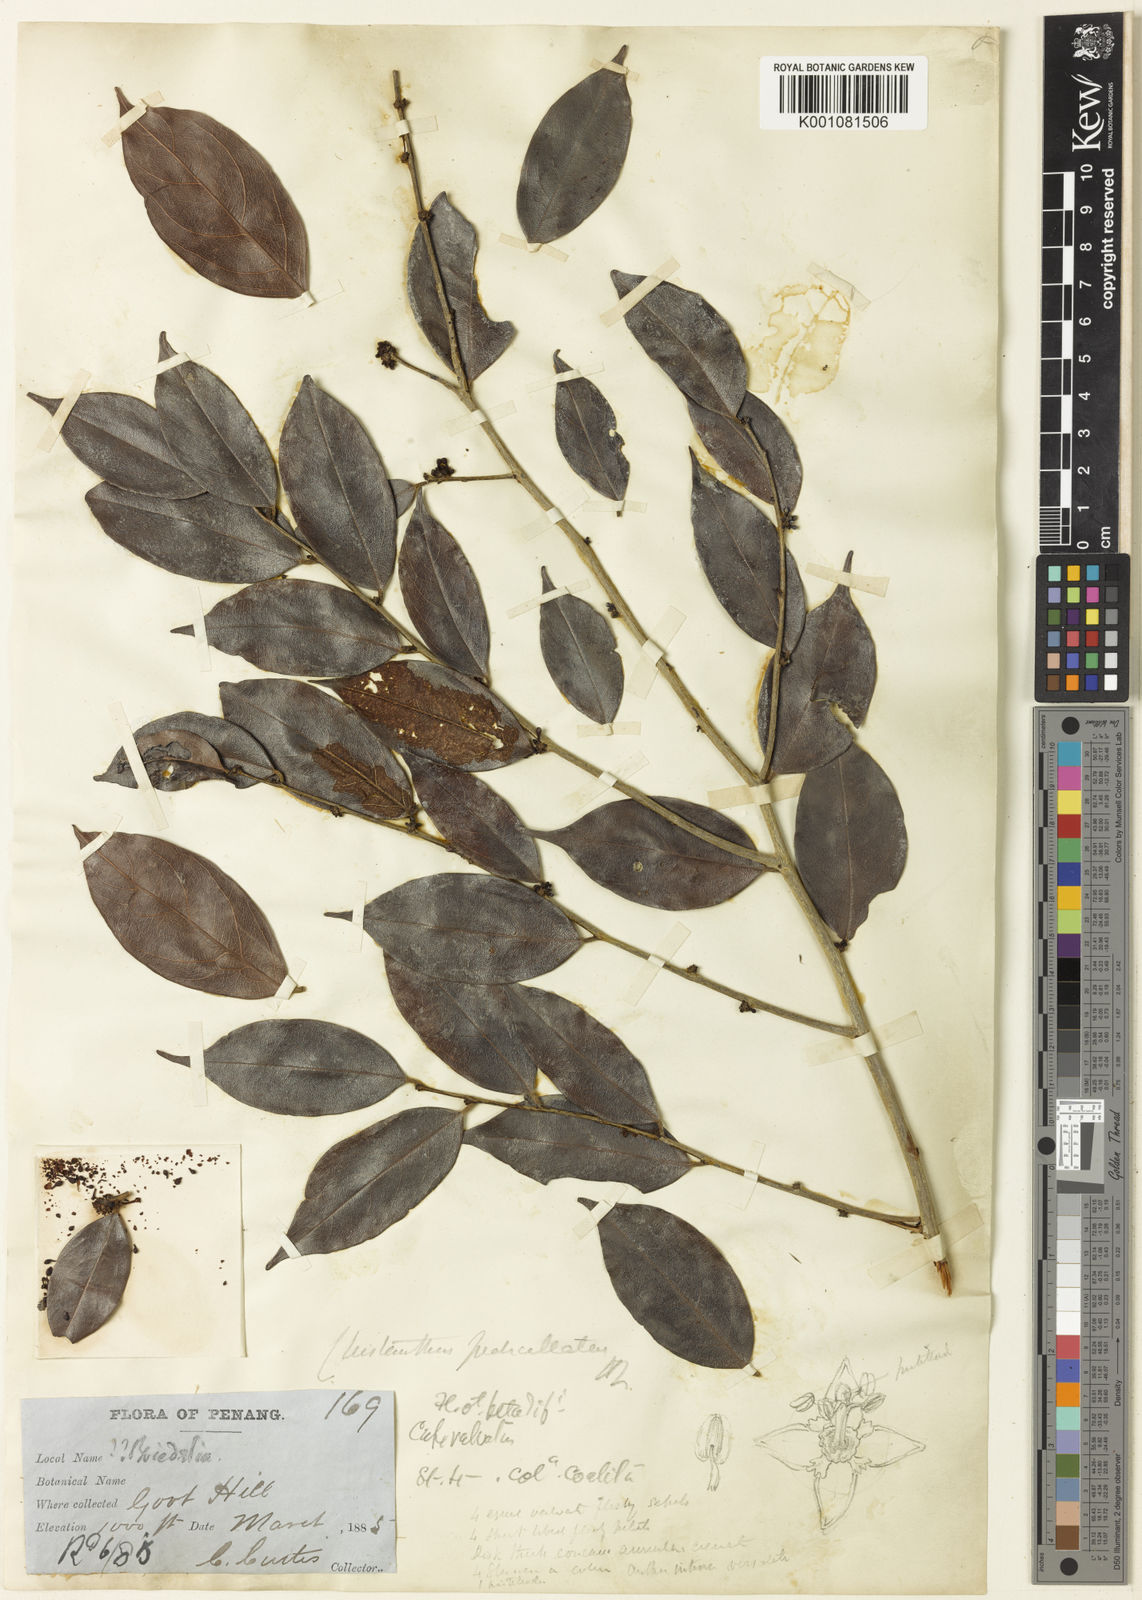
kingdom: Plantae
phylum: Tracheophyta
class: Magnoliopsida
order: Malpighiales
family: Phyllanthaceae
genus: Cleistanthus
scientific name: Cleistanthus pedicellatus
